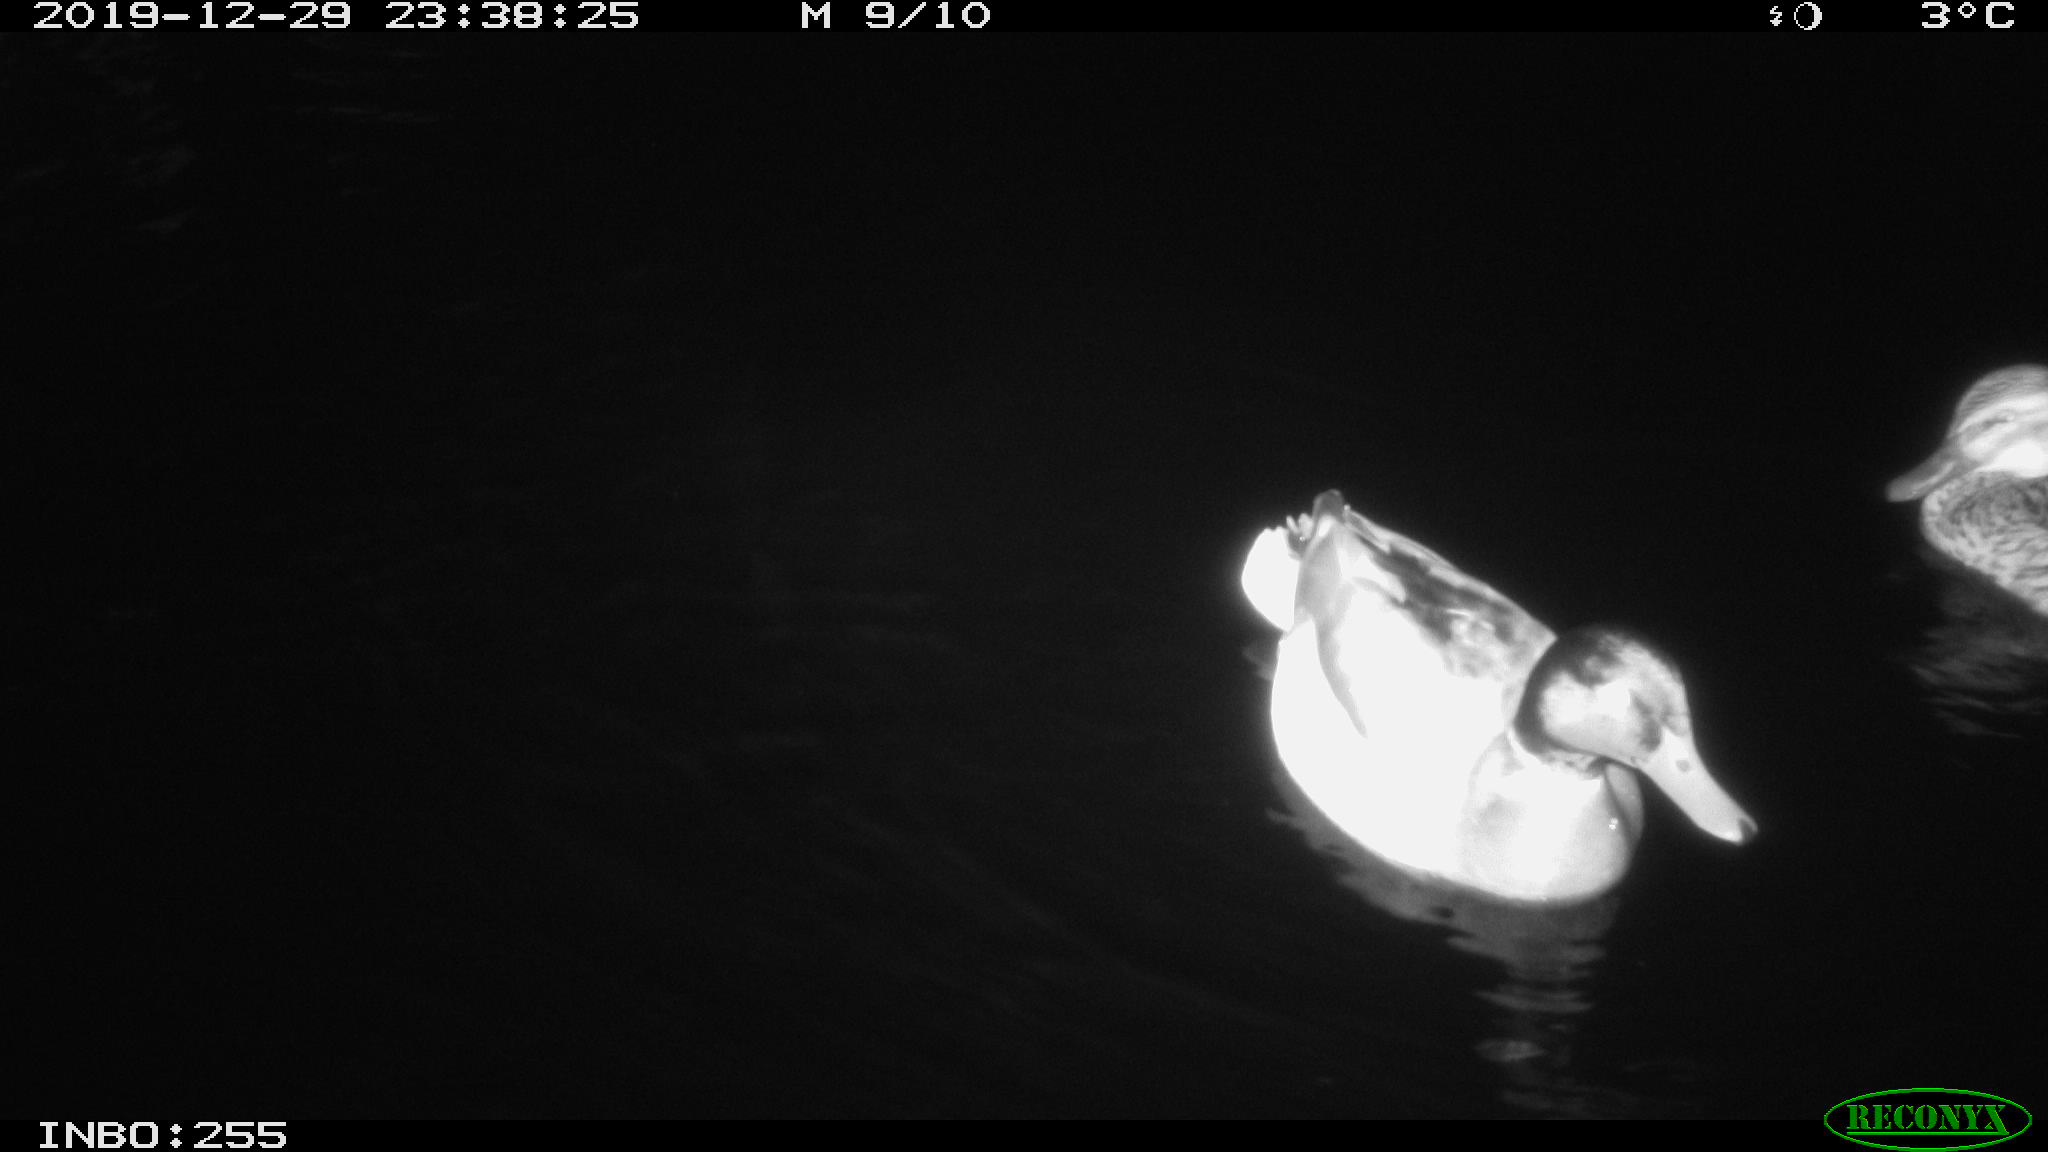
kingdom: Animalia
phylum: Chordata
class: Aves
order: Anseriformes
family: Anatidae
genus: Anas
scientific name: Anas platyrhynchos
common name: Mallard
